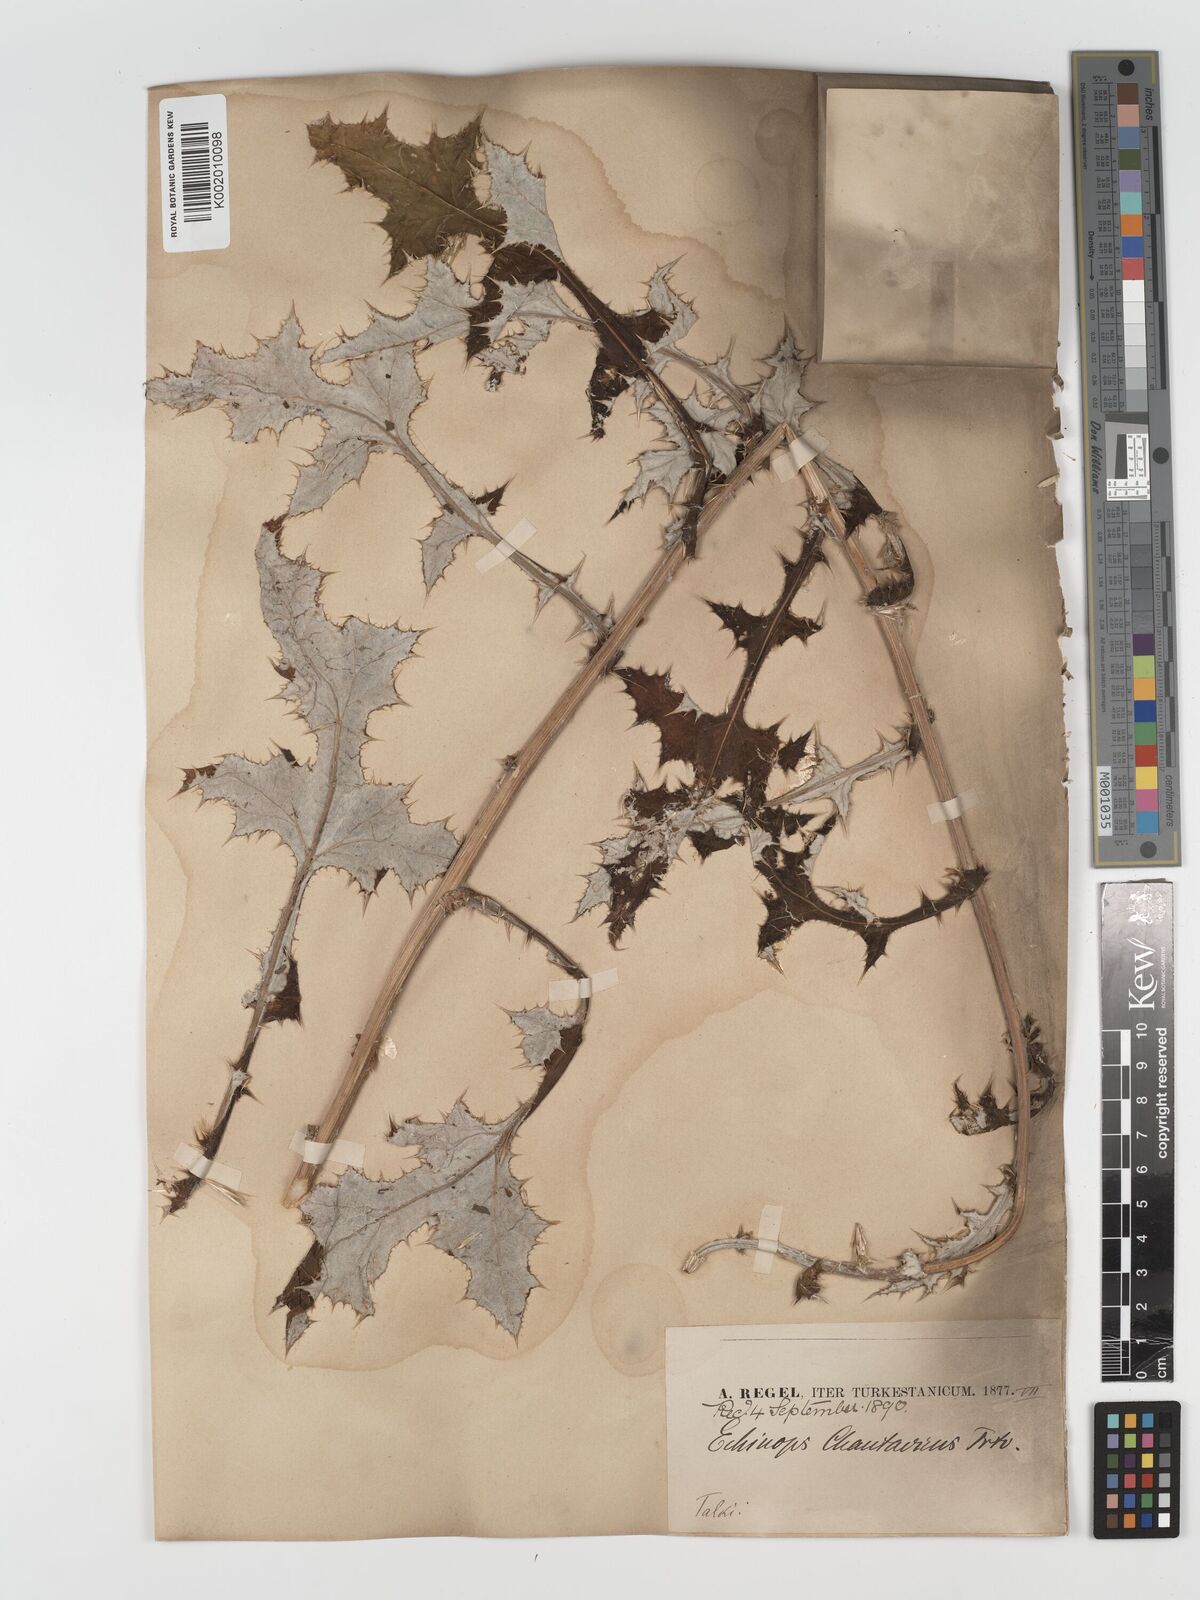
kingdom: Plantae
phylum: Tracheophyta
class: Magnoliopsida
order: Asterales
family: Asteraceae
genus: Echinops
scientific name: Echinops chantavicus
